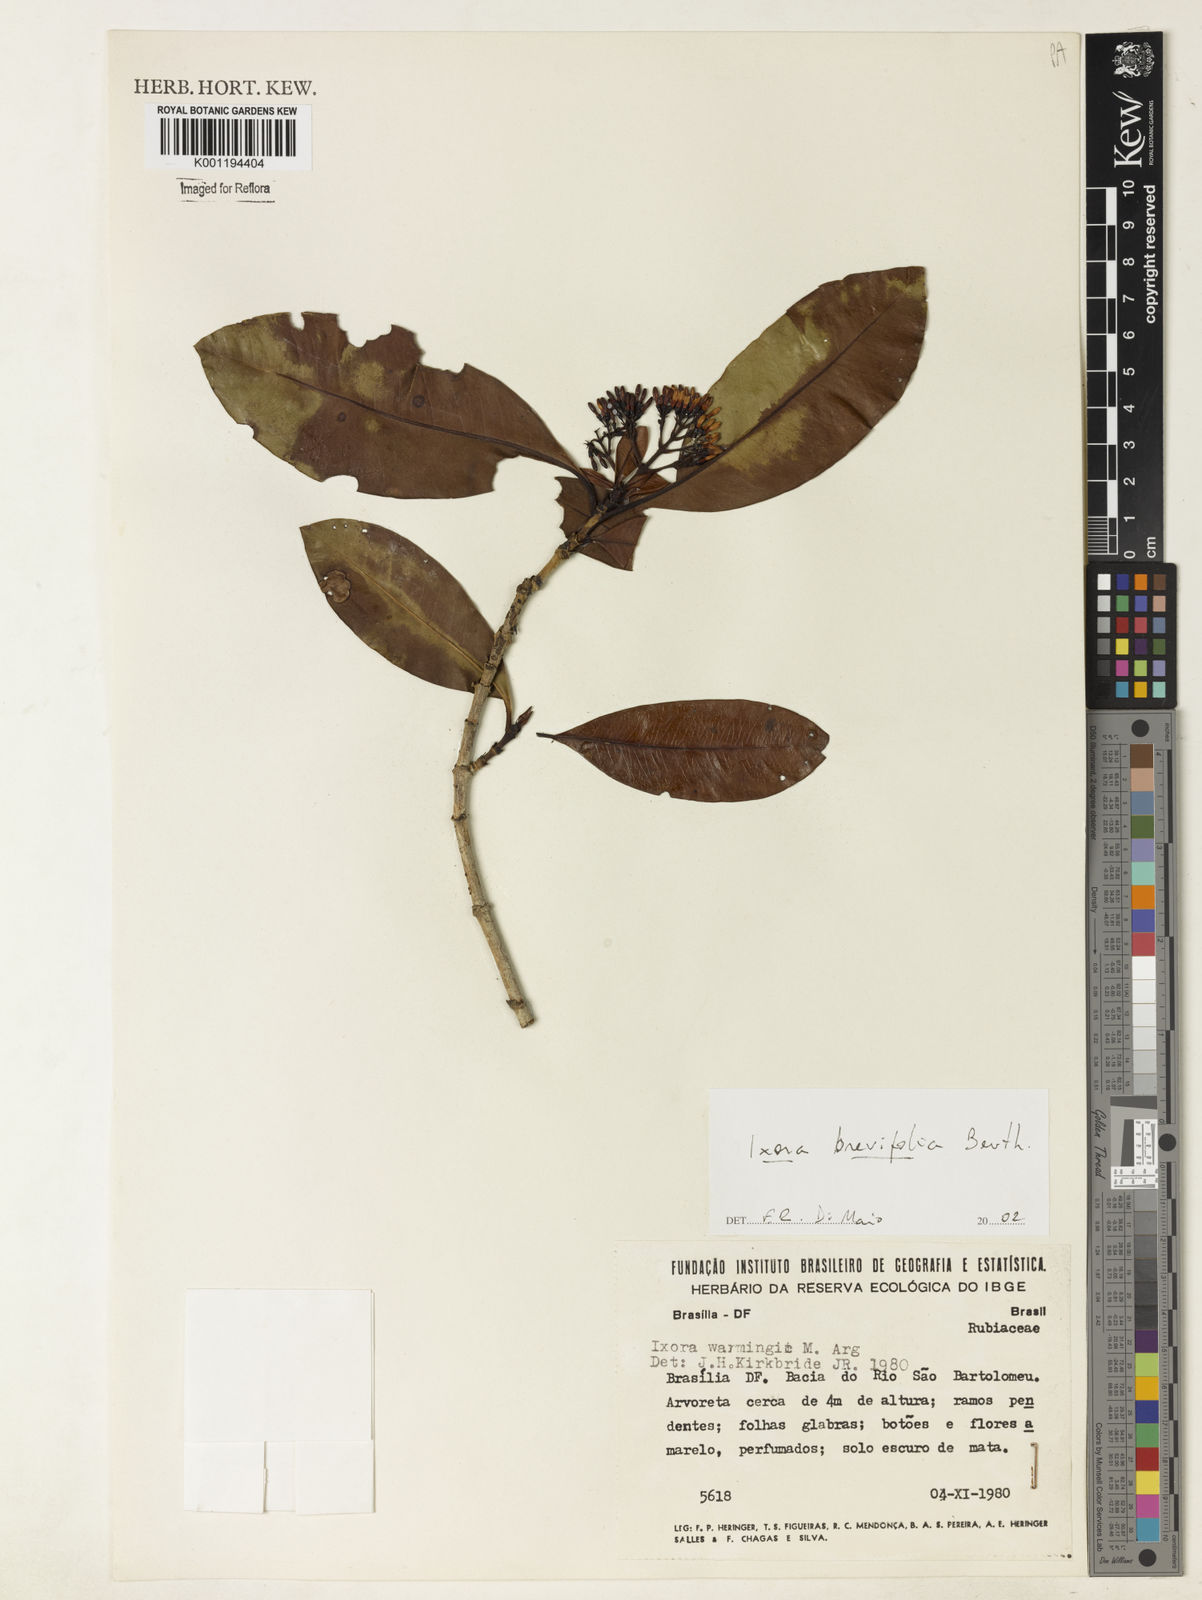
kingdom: Plantae
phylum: Tracheophyta
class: Magnoliopsida
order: Gentianales
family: Rubiaceae
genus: Ixora
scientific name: Ixora brevifolia
